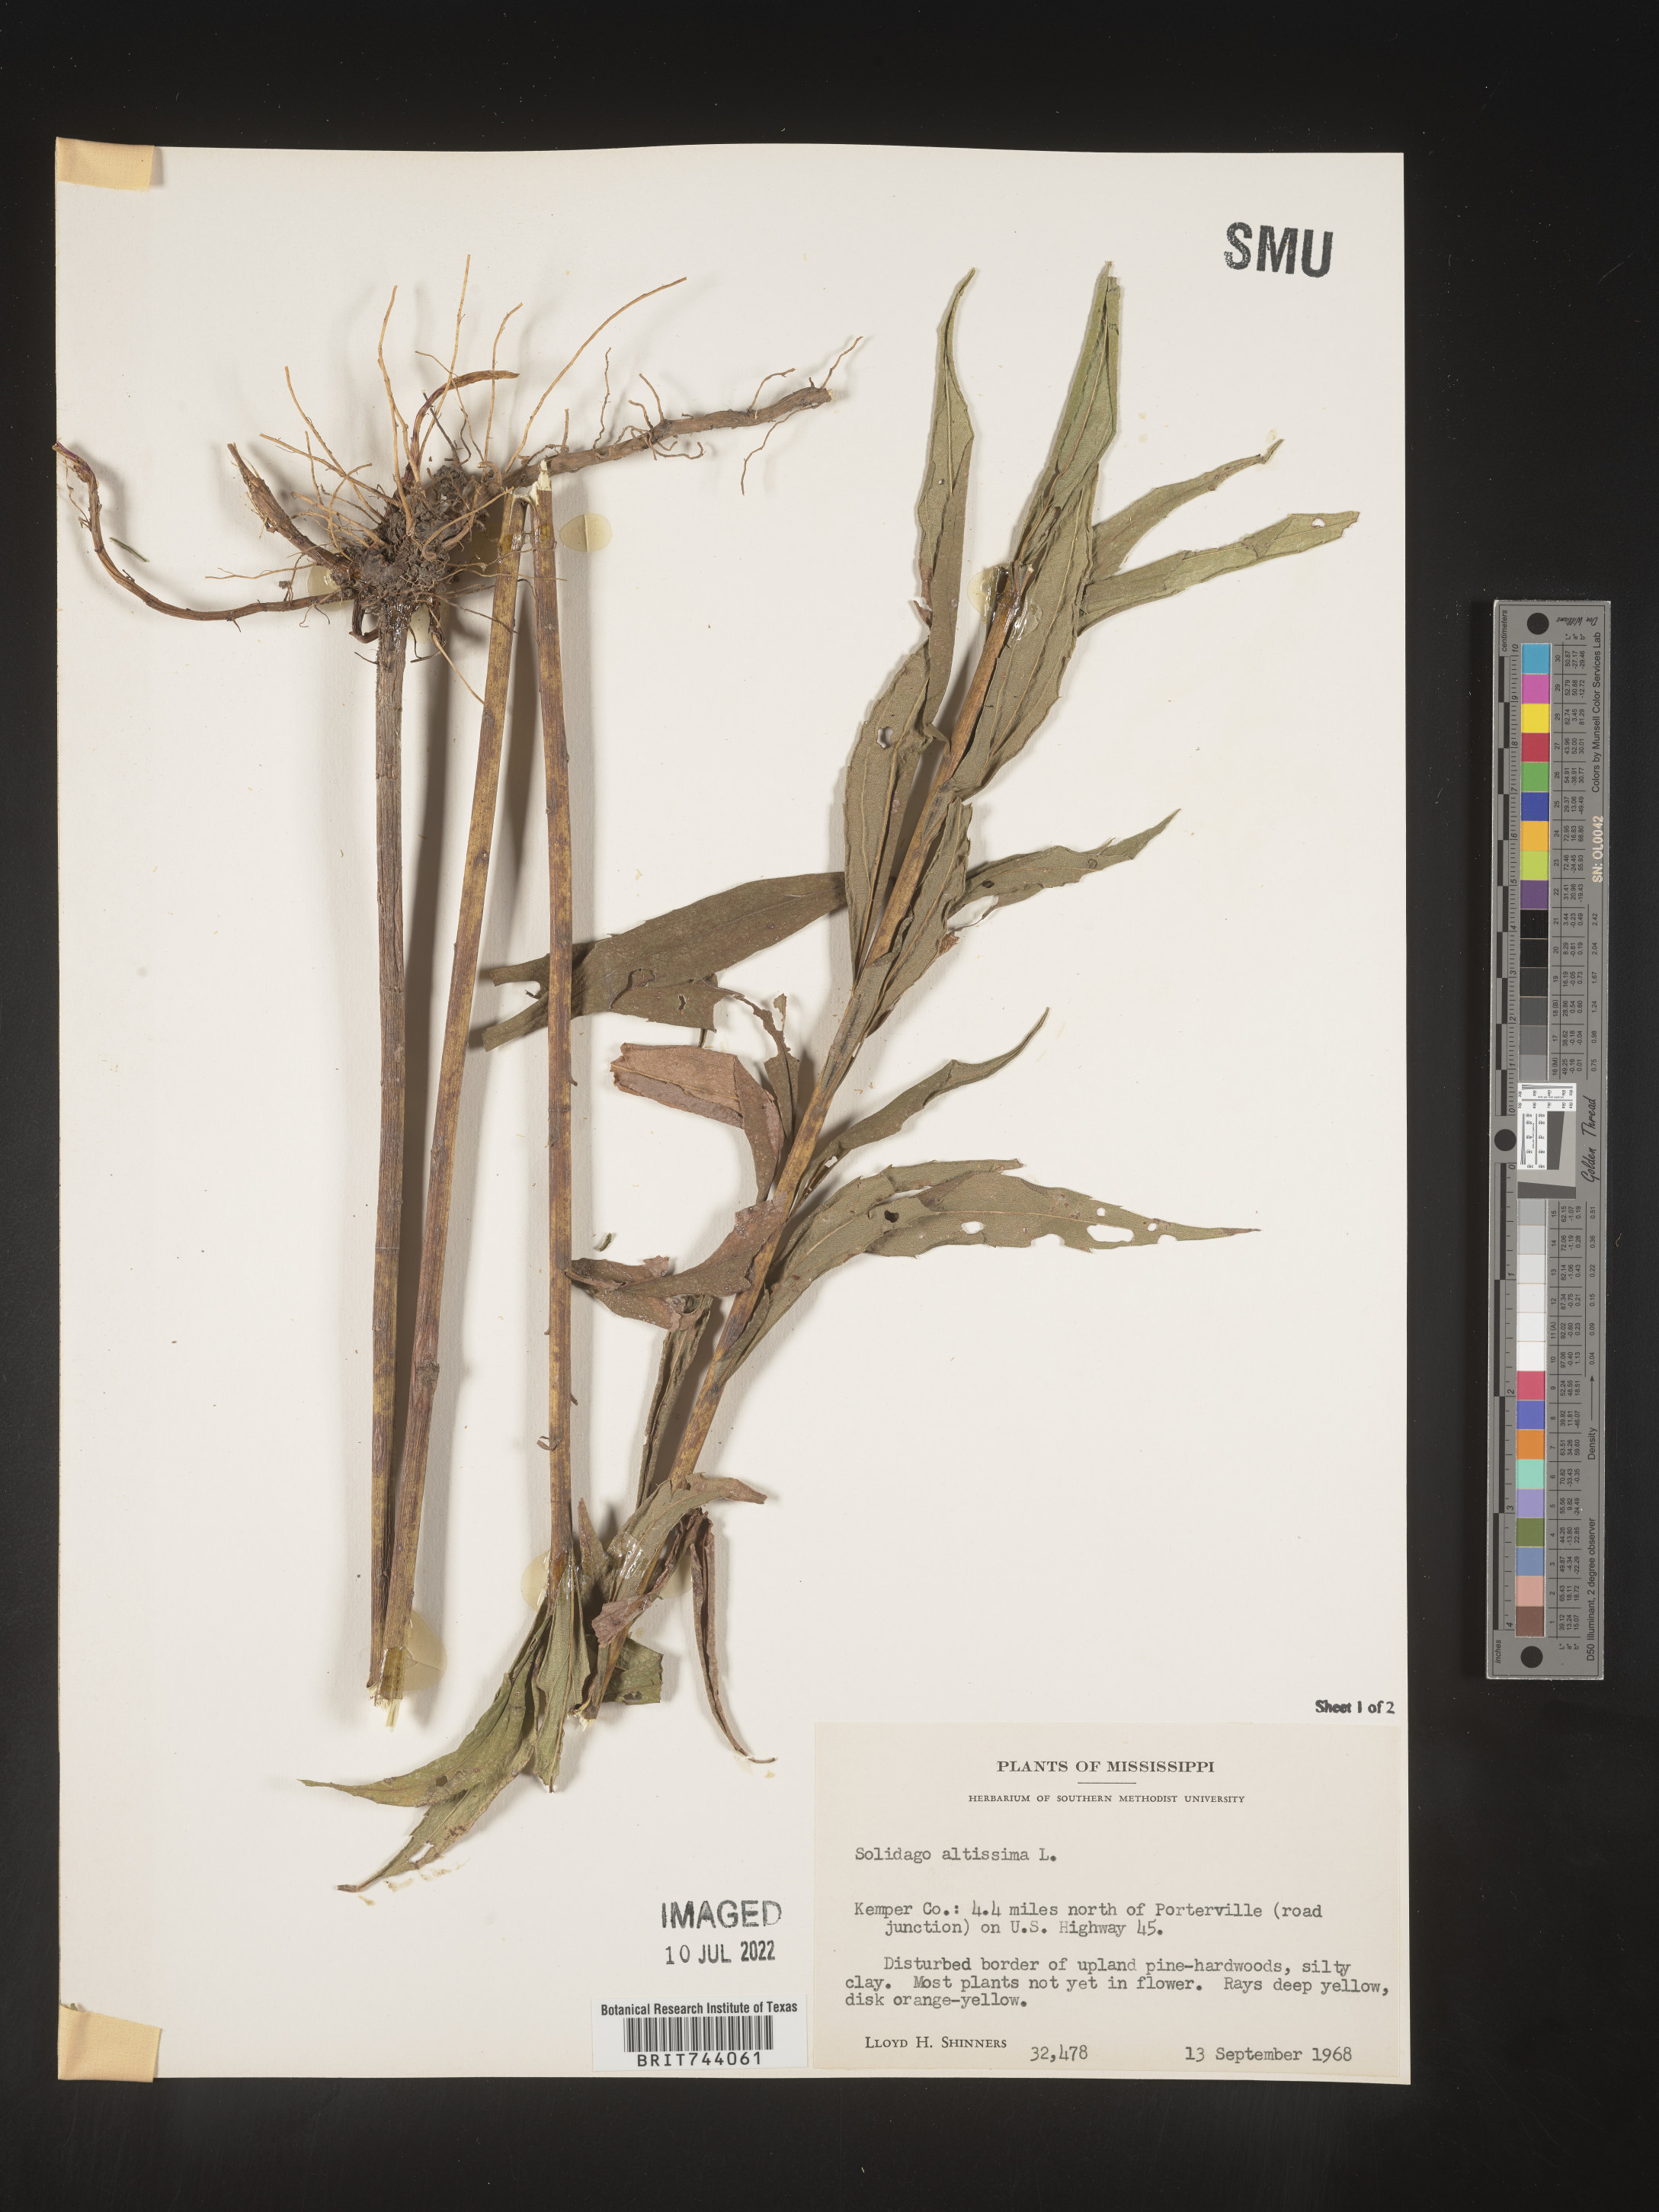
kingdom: Plantae
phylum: Tracheophyta
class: Magnoliopsida
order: Asterales
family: Asteraceae
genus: Solidago
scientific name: Solidago altissima
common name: Late goldenrod
